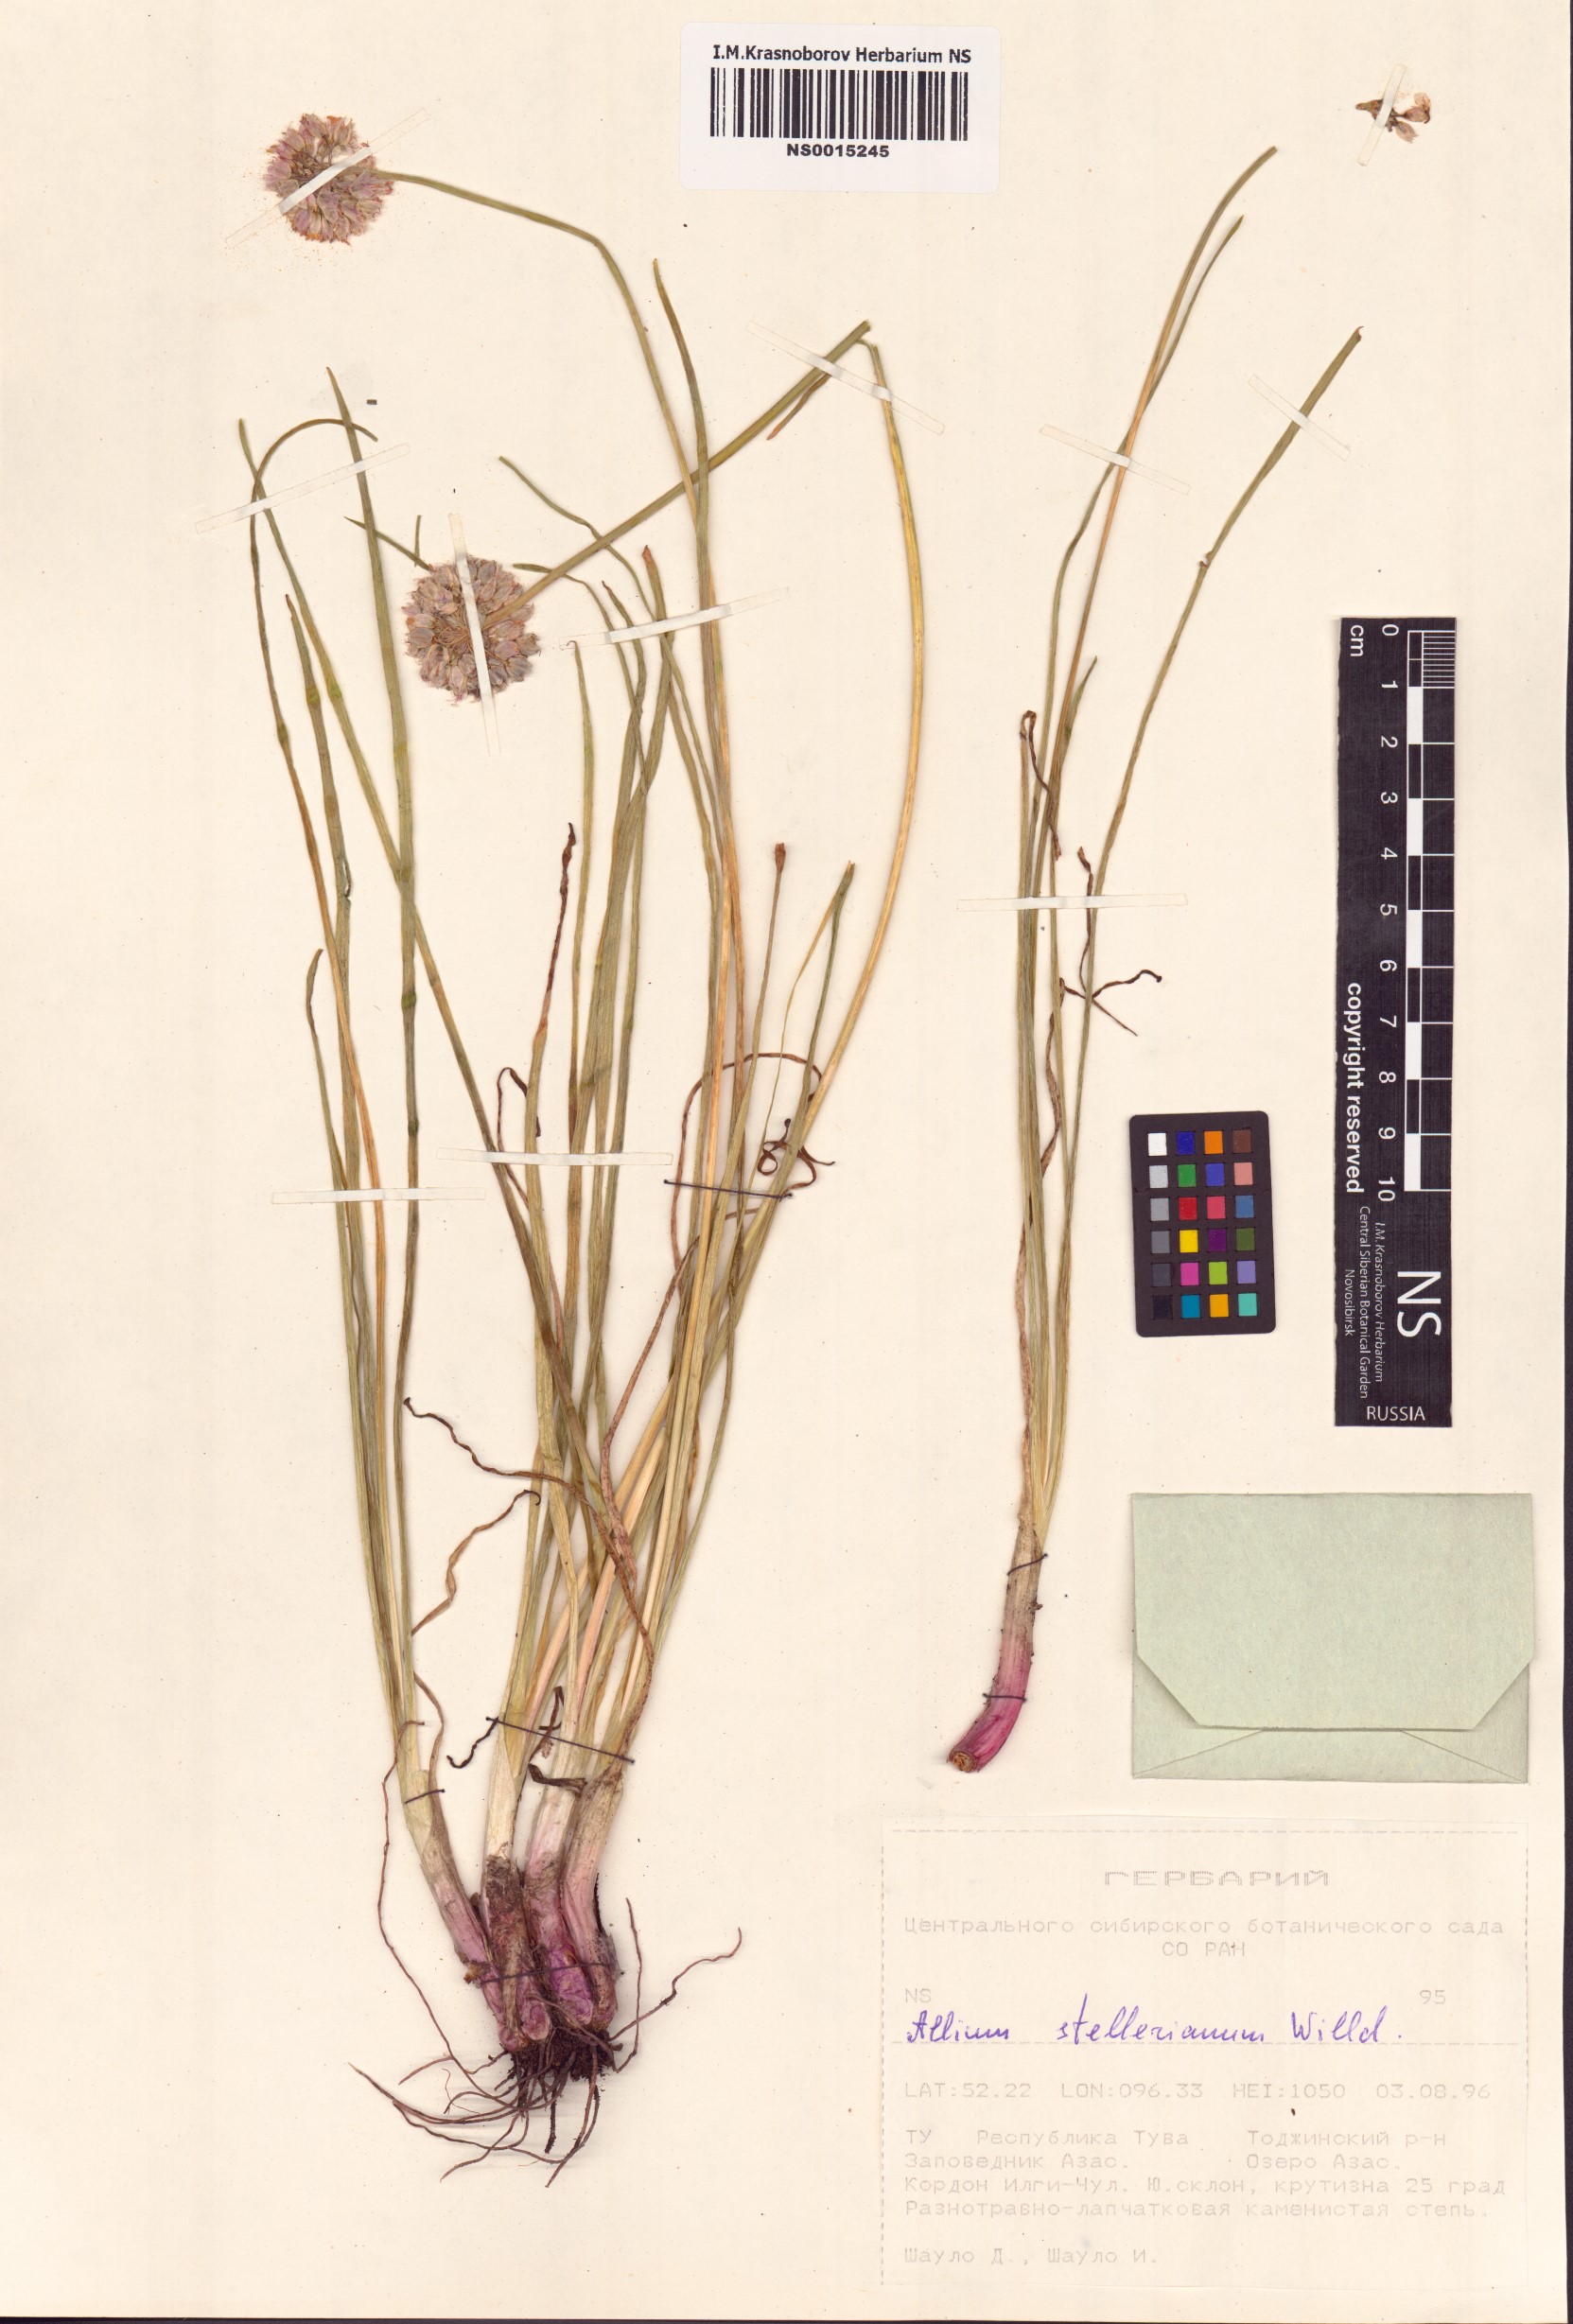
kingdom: Plantae
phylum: Tracheophyta
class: Liliopsida
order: Asparagales
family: Amaryllidaceae
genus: Allium
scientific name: Allium stellerianum
